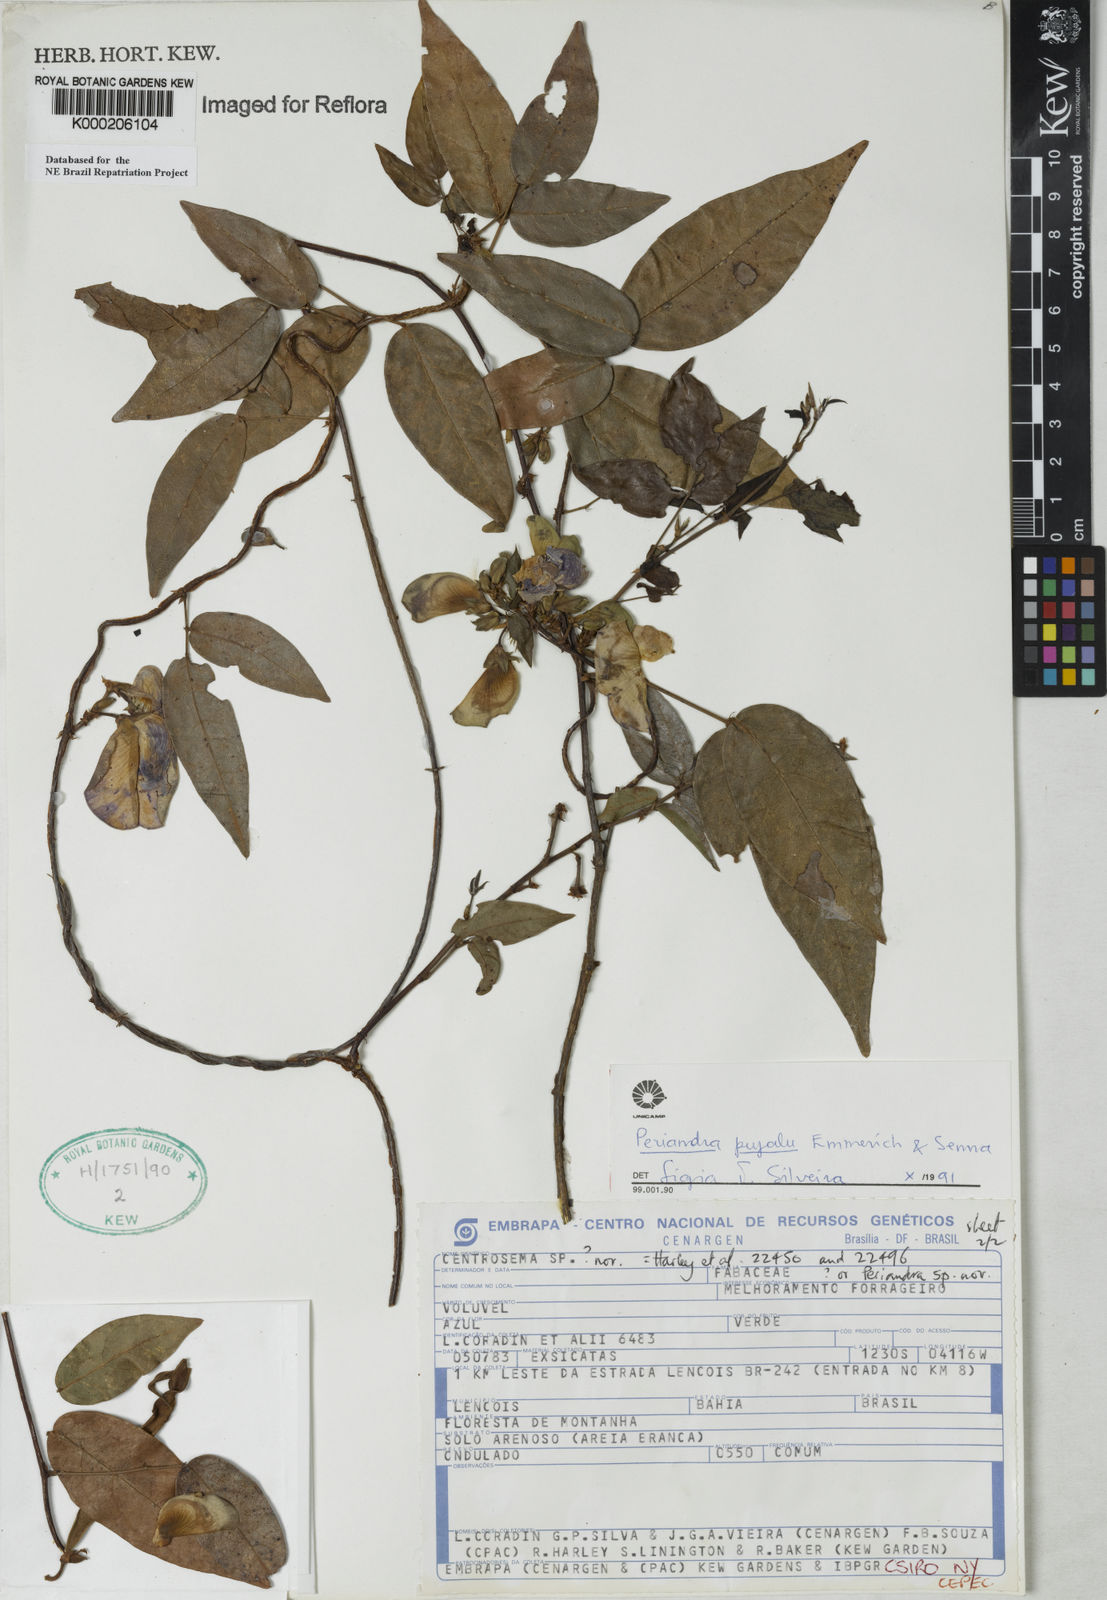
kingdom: Plantae
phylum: Tracheophyta
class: Magnoliopsida
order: Fabales
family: Fabaceae
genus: Periandra
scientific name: Periandra pujalu
